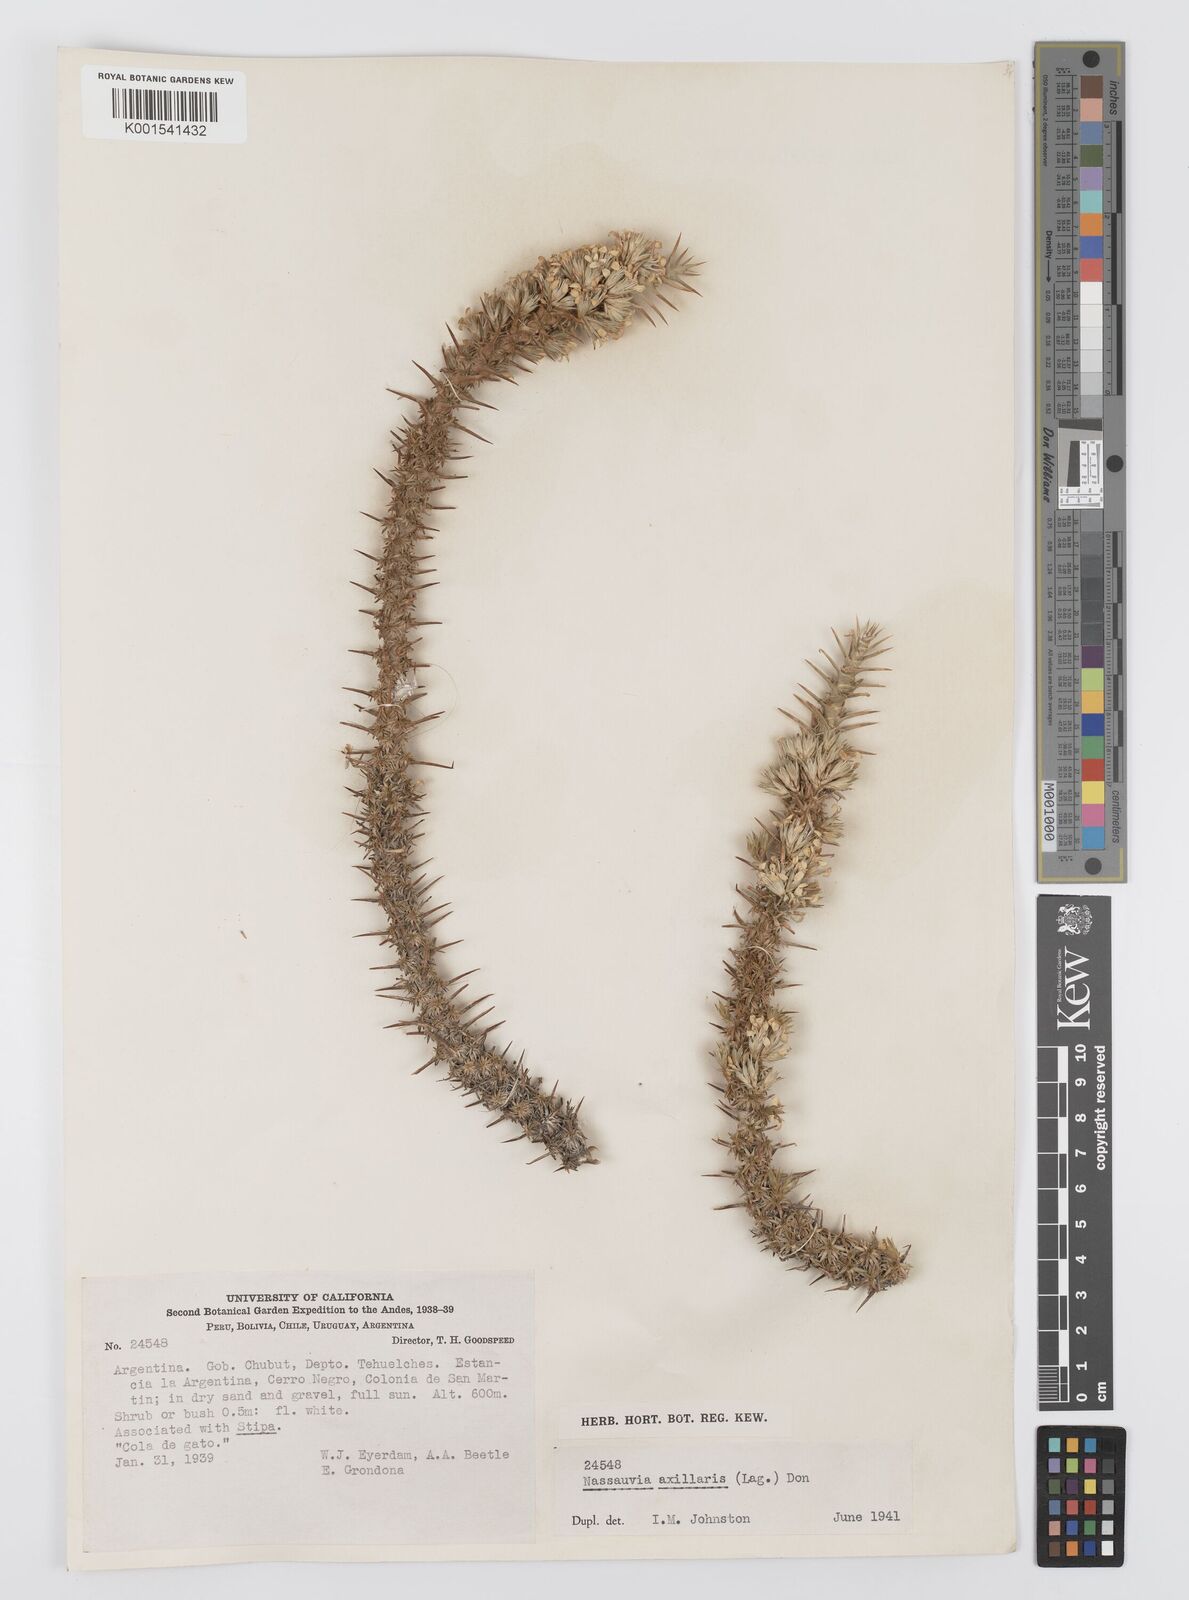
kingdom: Plantae
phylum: Tracheophyta
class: Magnoliopsida
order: Asterales
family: Asteraceae
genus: Nassauvia
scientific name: Nassauvia axillaris
